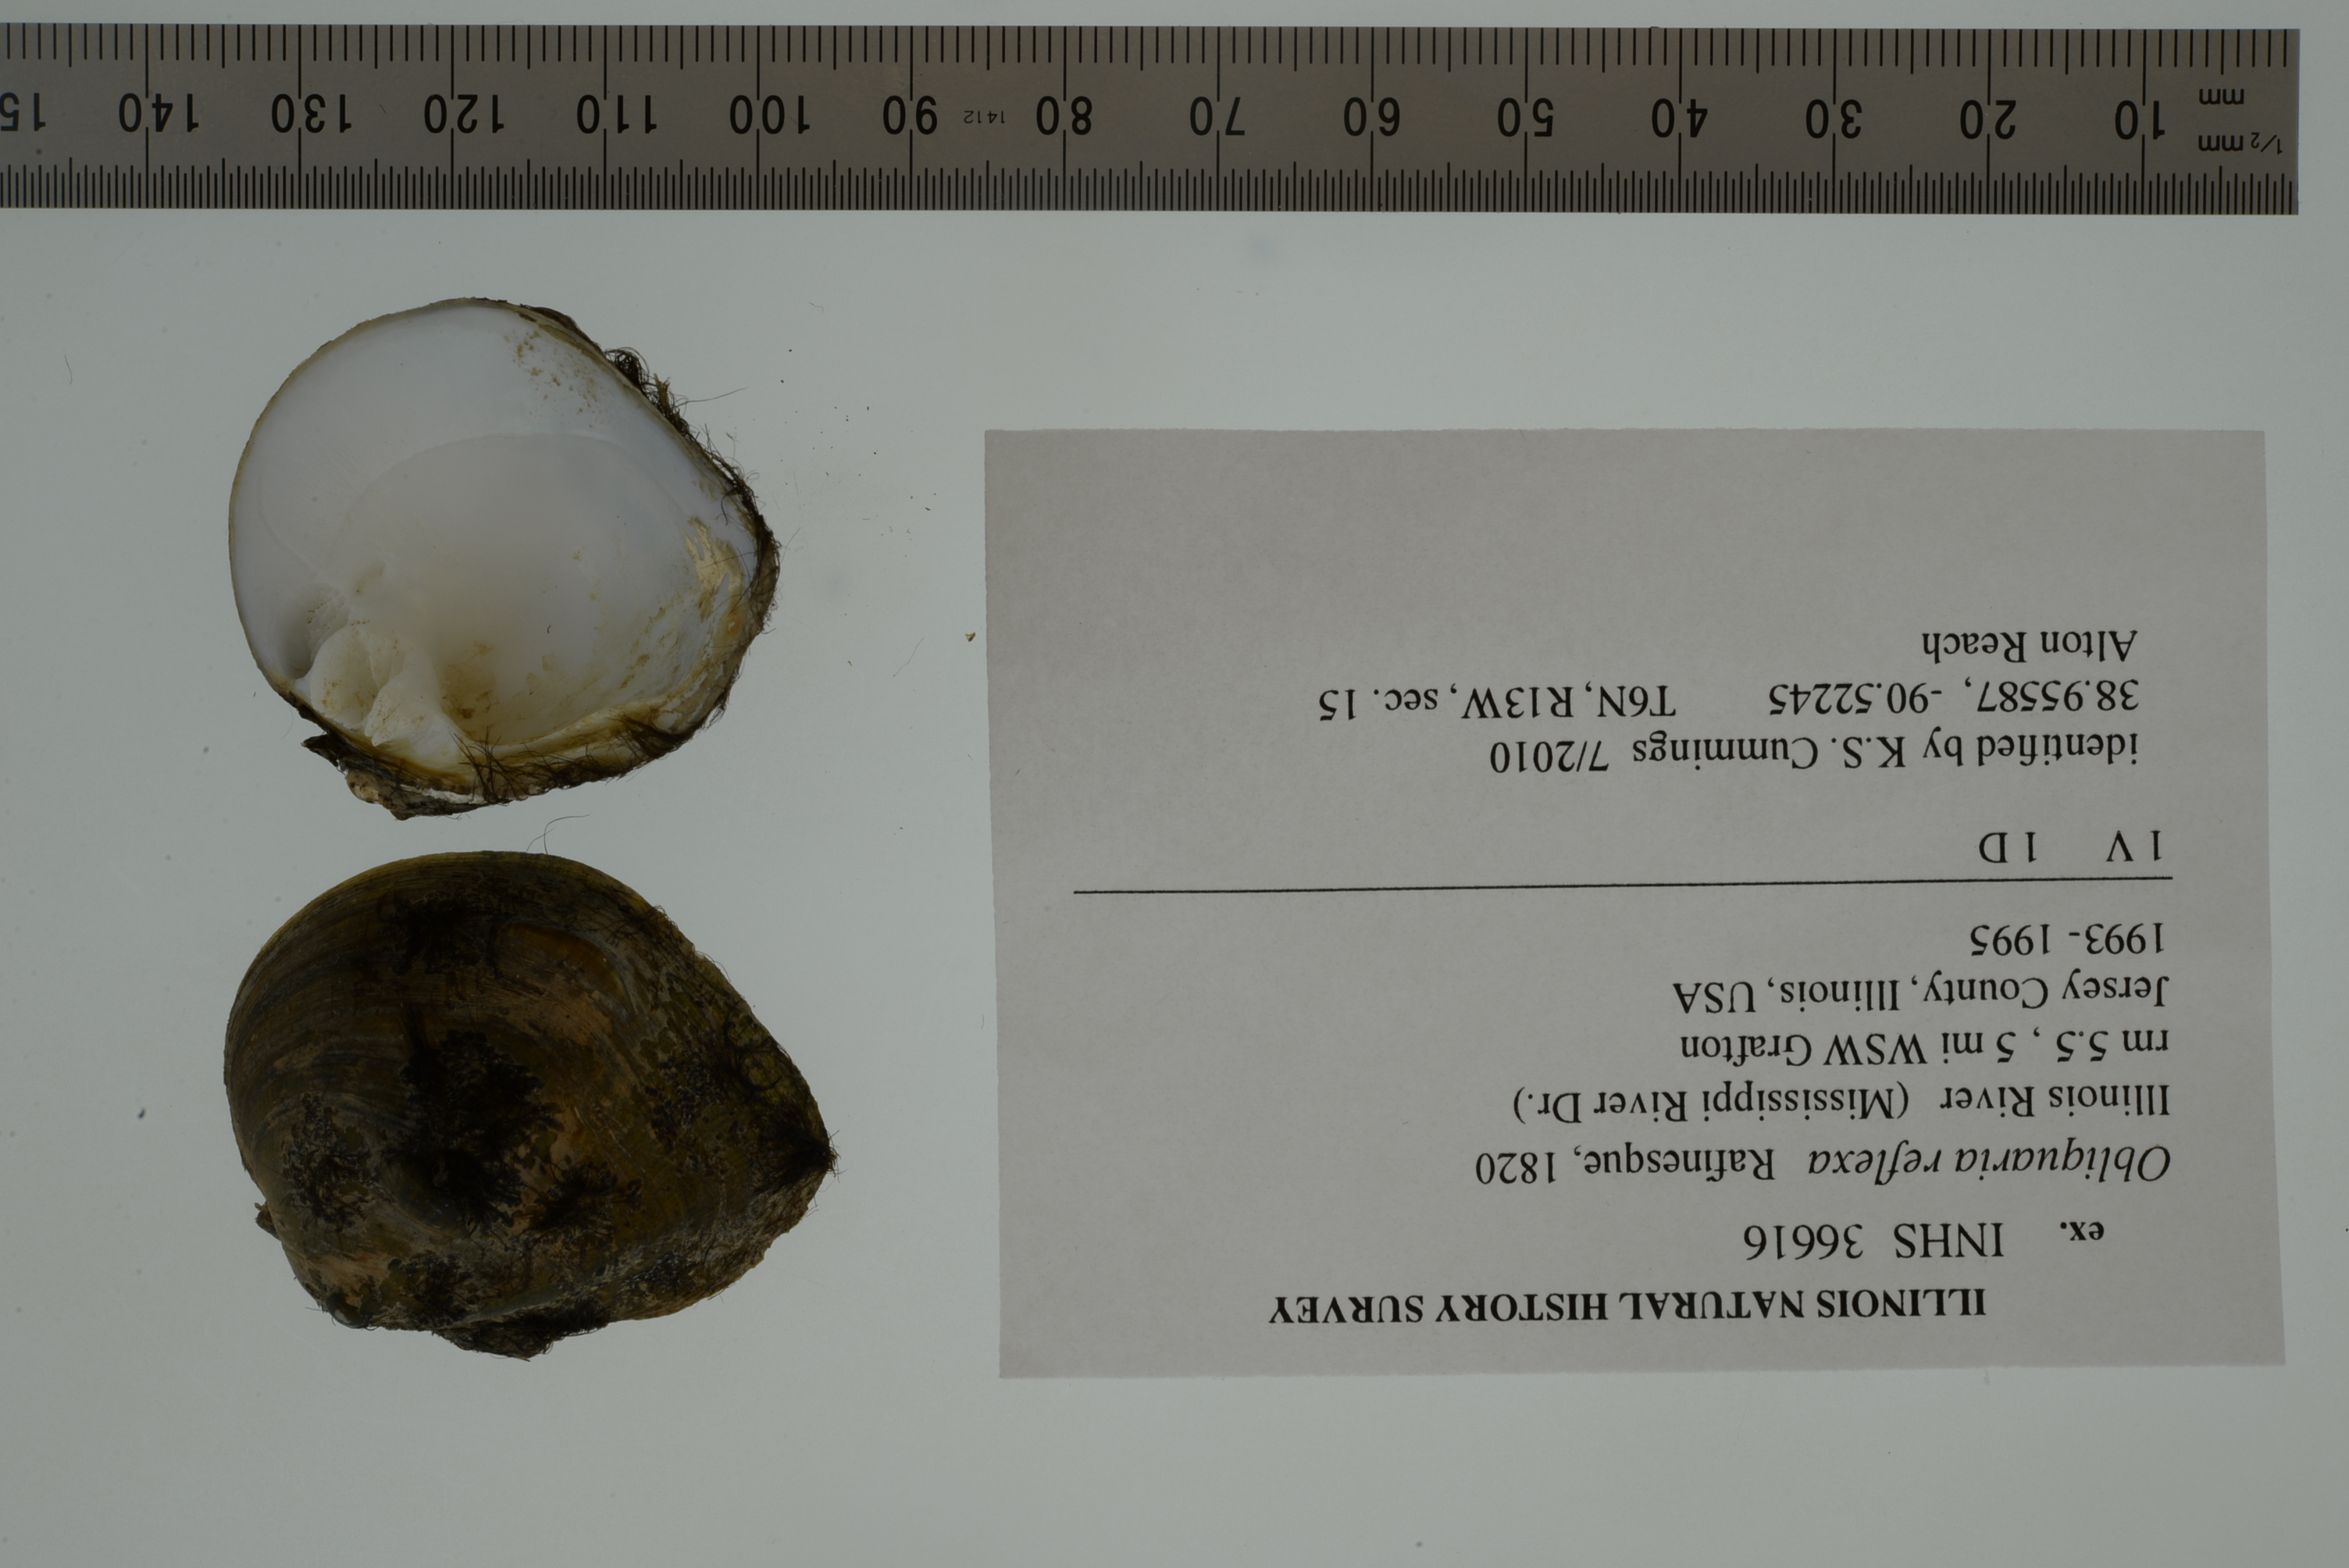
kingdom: Animalia
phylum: Mollusca
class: Bivalvia
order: Unionida
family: Unionidae
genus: Obliquaria
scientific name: Obliquaria reflexa
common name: Threehorn wartyback
